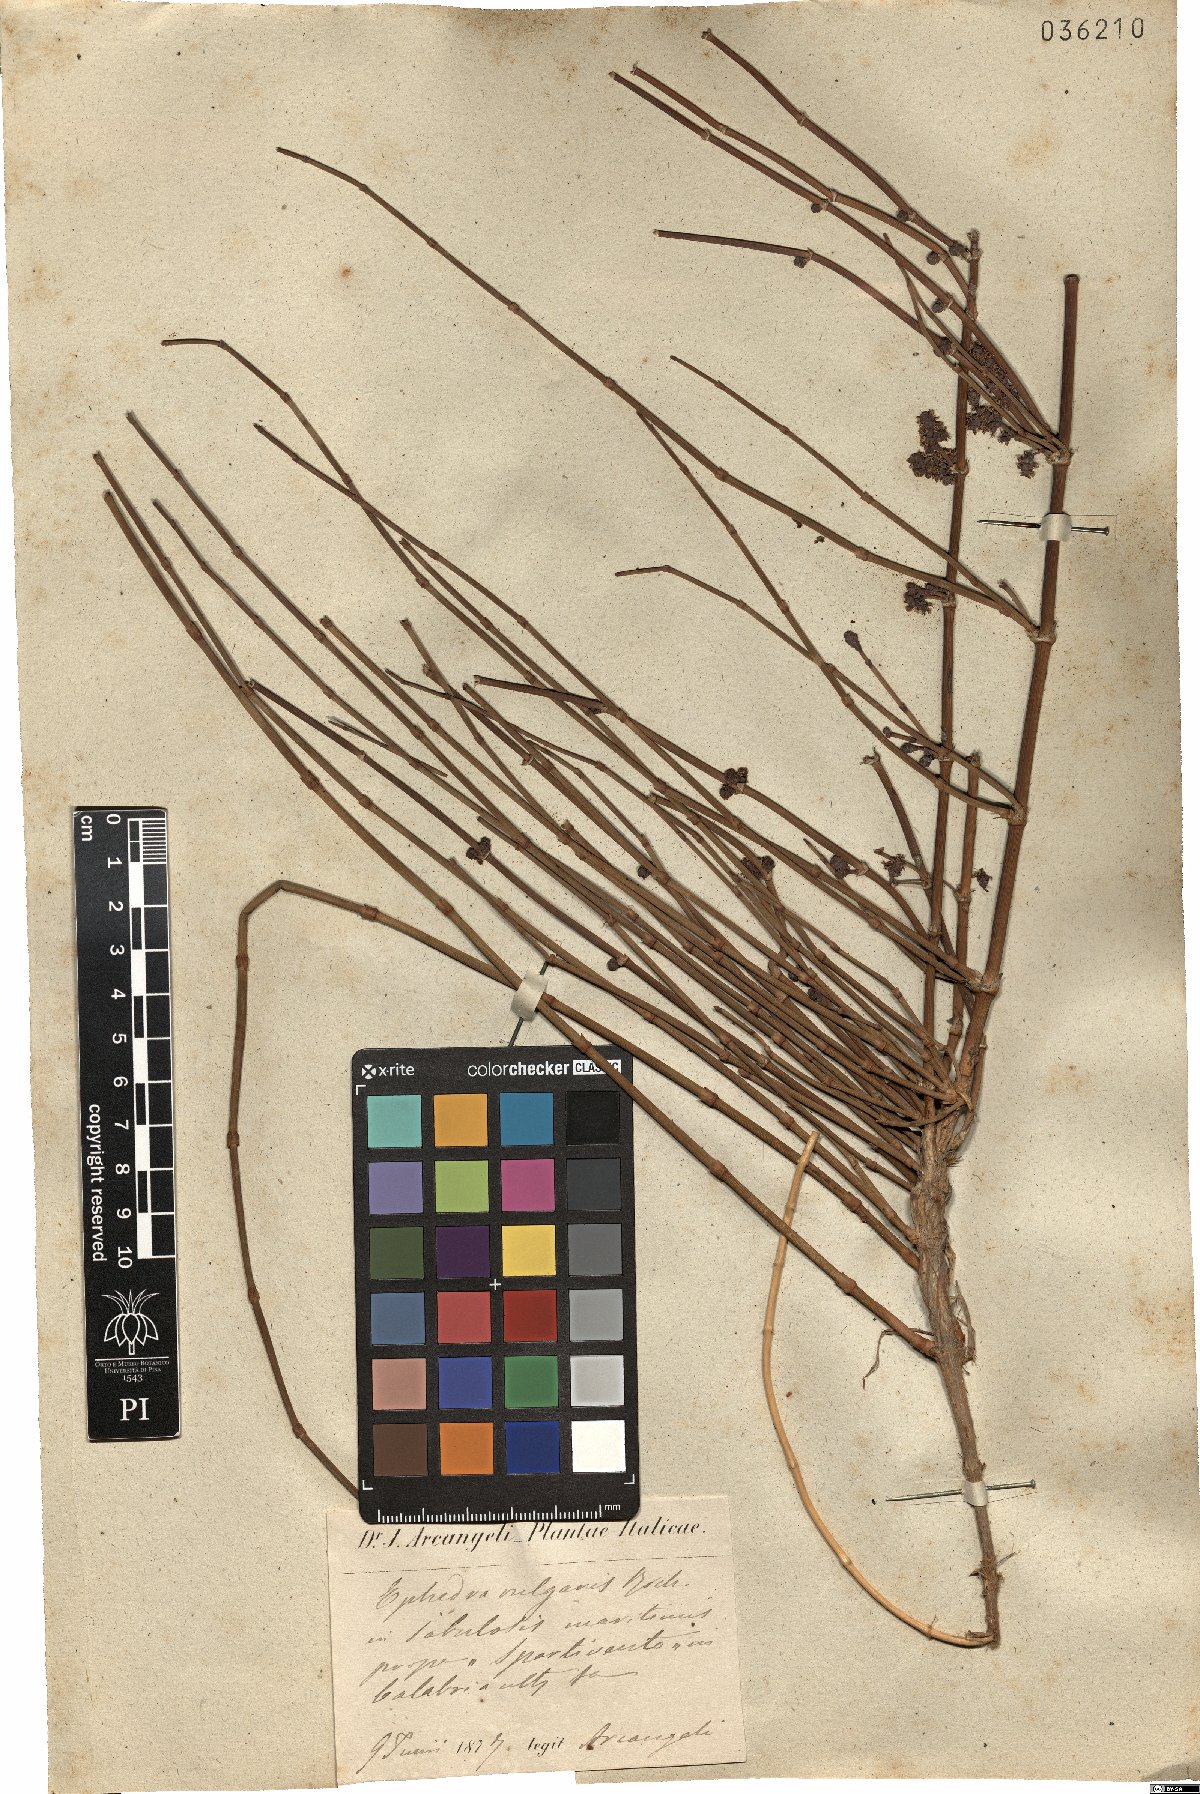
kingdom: Plantae
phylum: Tracheophyta
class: Gnetopsida
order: Ephedrales
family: Ephedraceae
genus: Ephedra
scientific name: Ephedra distachya
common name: Sea grape
